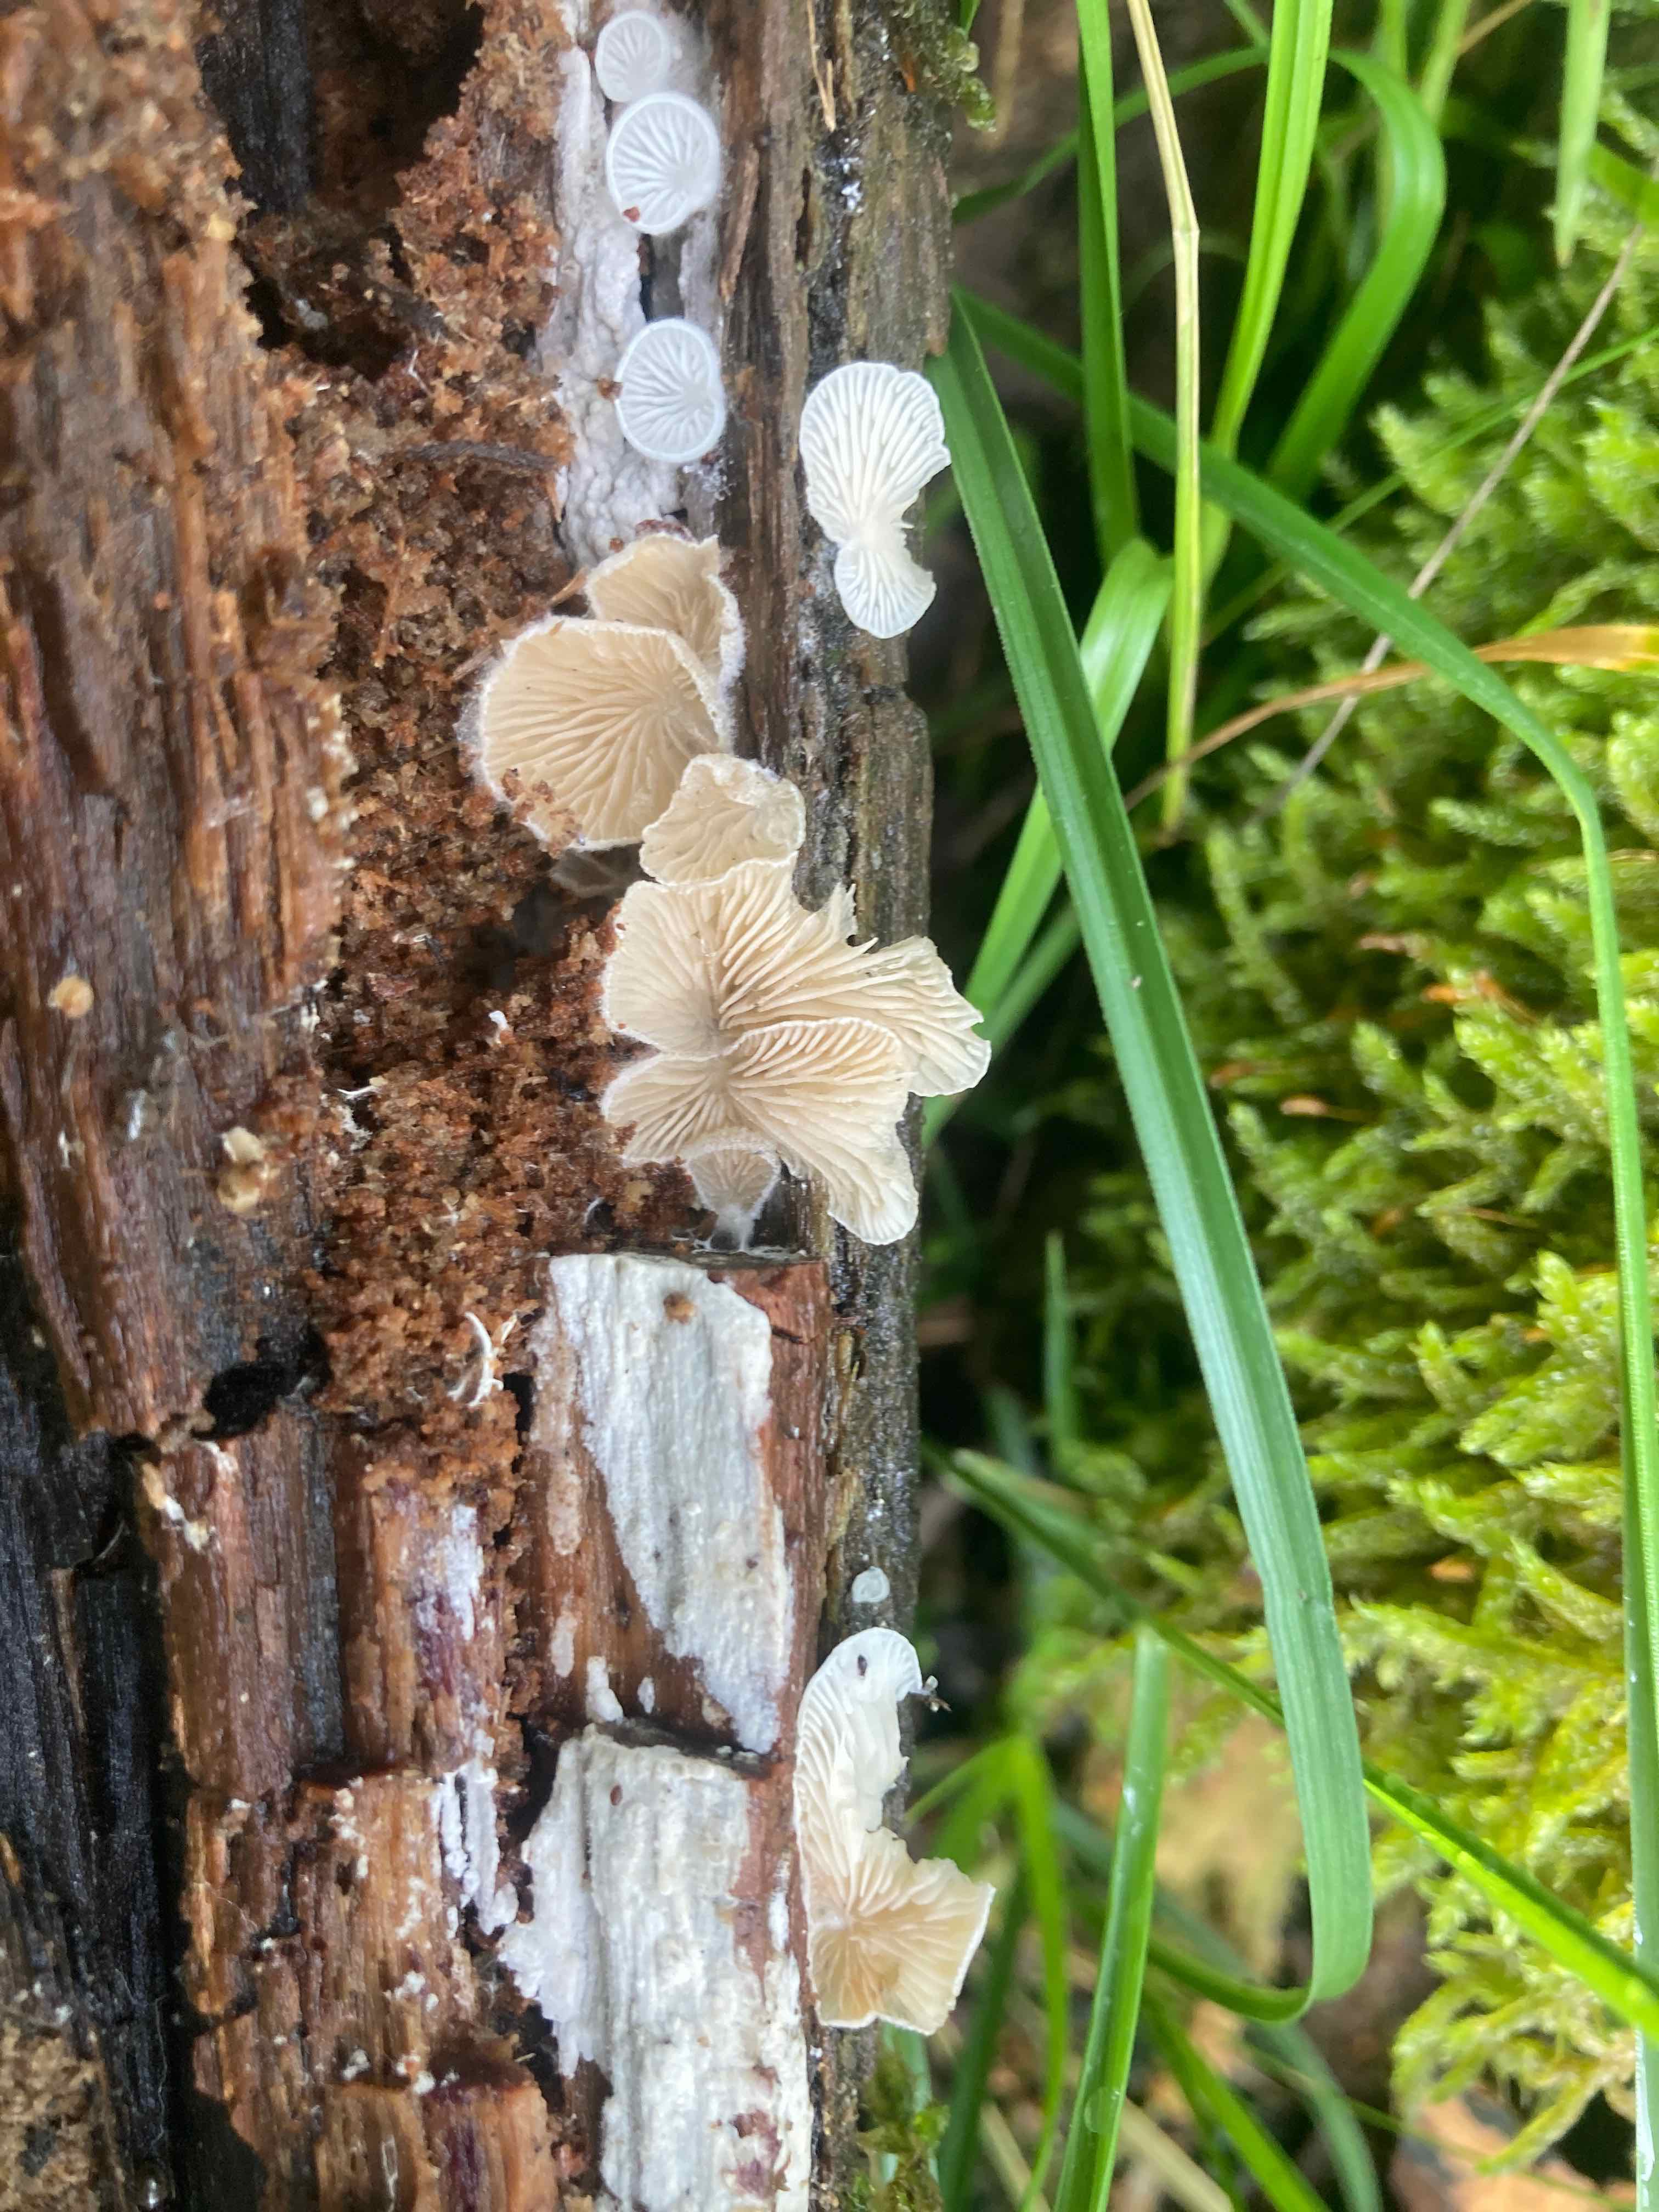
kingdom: Fungi
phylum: Basidiomycota
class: Agaricomycetes
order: Agaricales
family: Entolomataceae
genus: Clitopilus
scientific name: Clitopilus hobsonii
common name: Miller's oysterling
